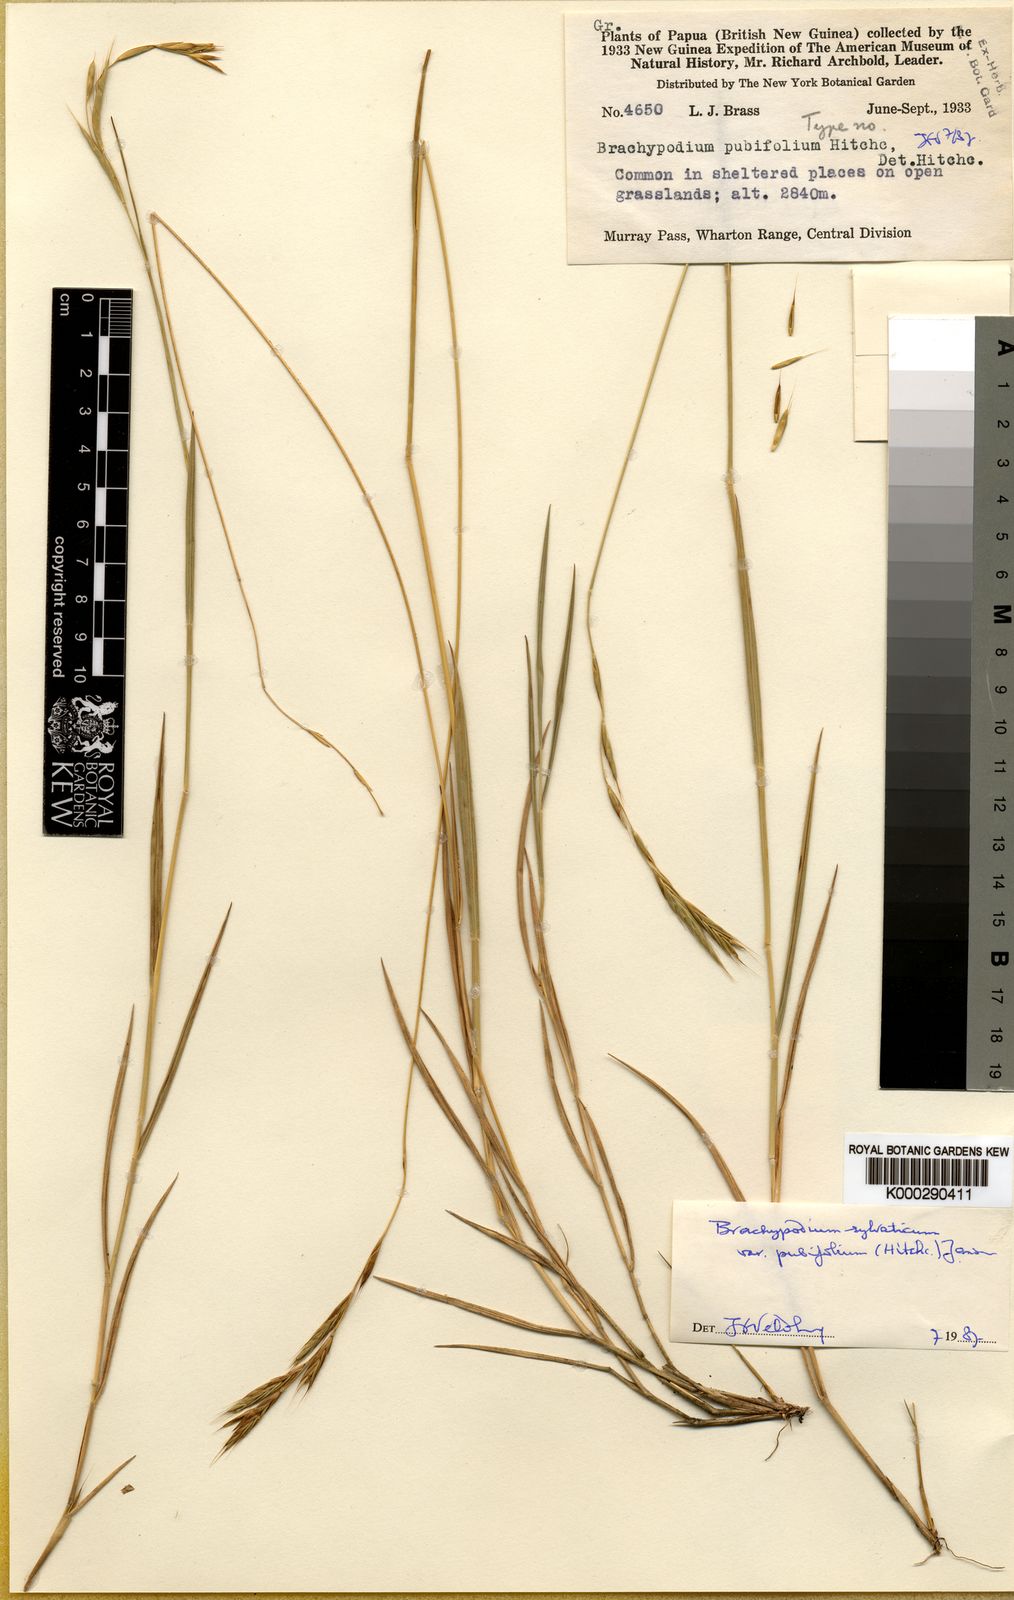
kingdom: Plantae
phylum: Tracheophyta
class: Liliopsida
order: Poales
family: Poaceae
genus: Brachypodium
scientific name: Brachypodium sylvaticum
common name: False-brome
